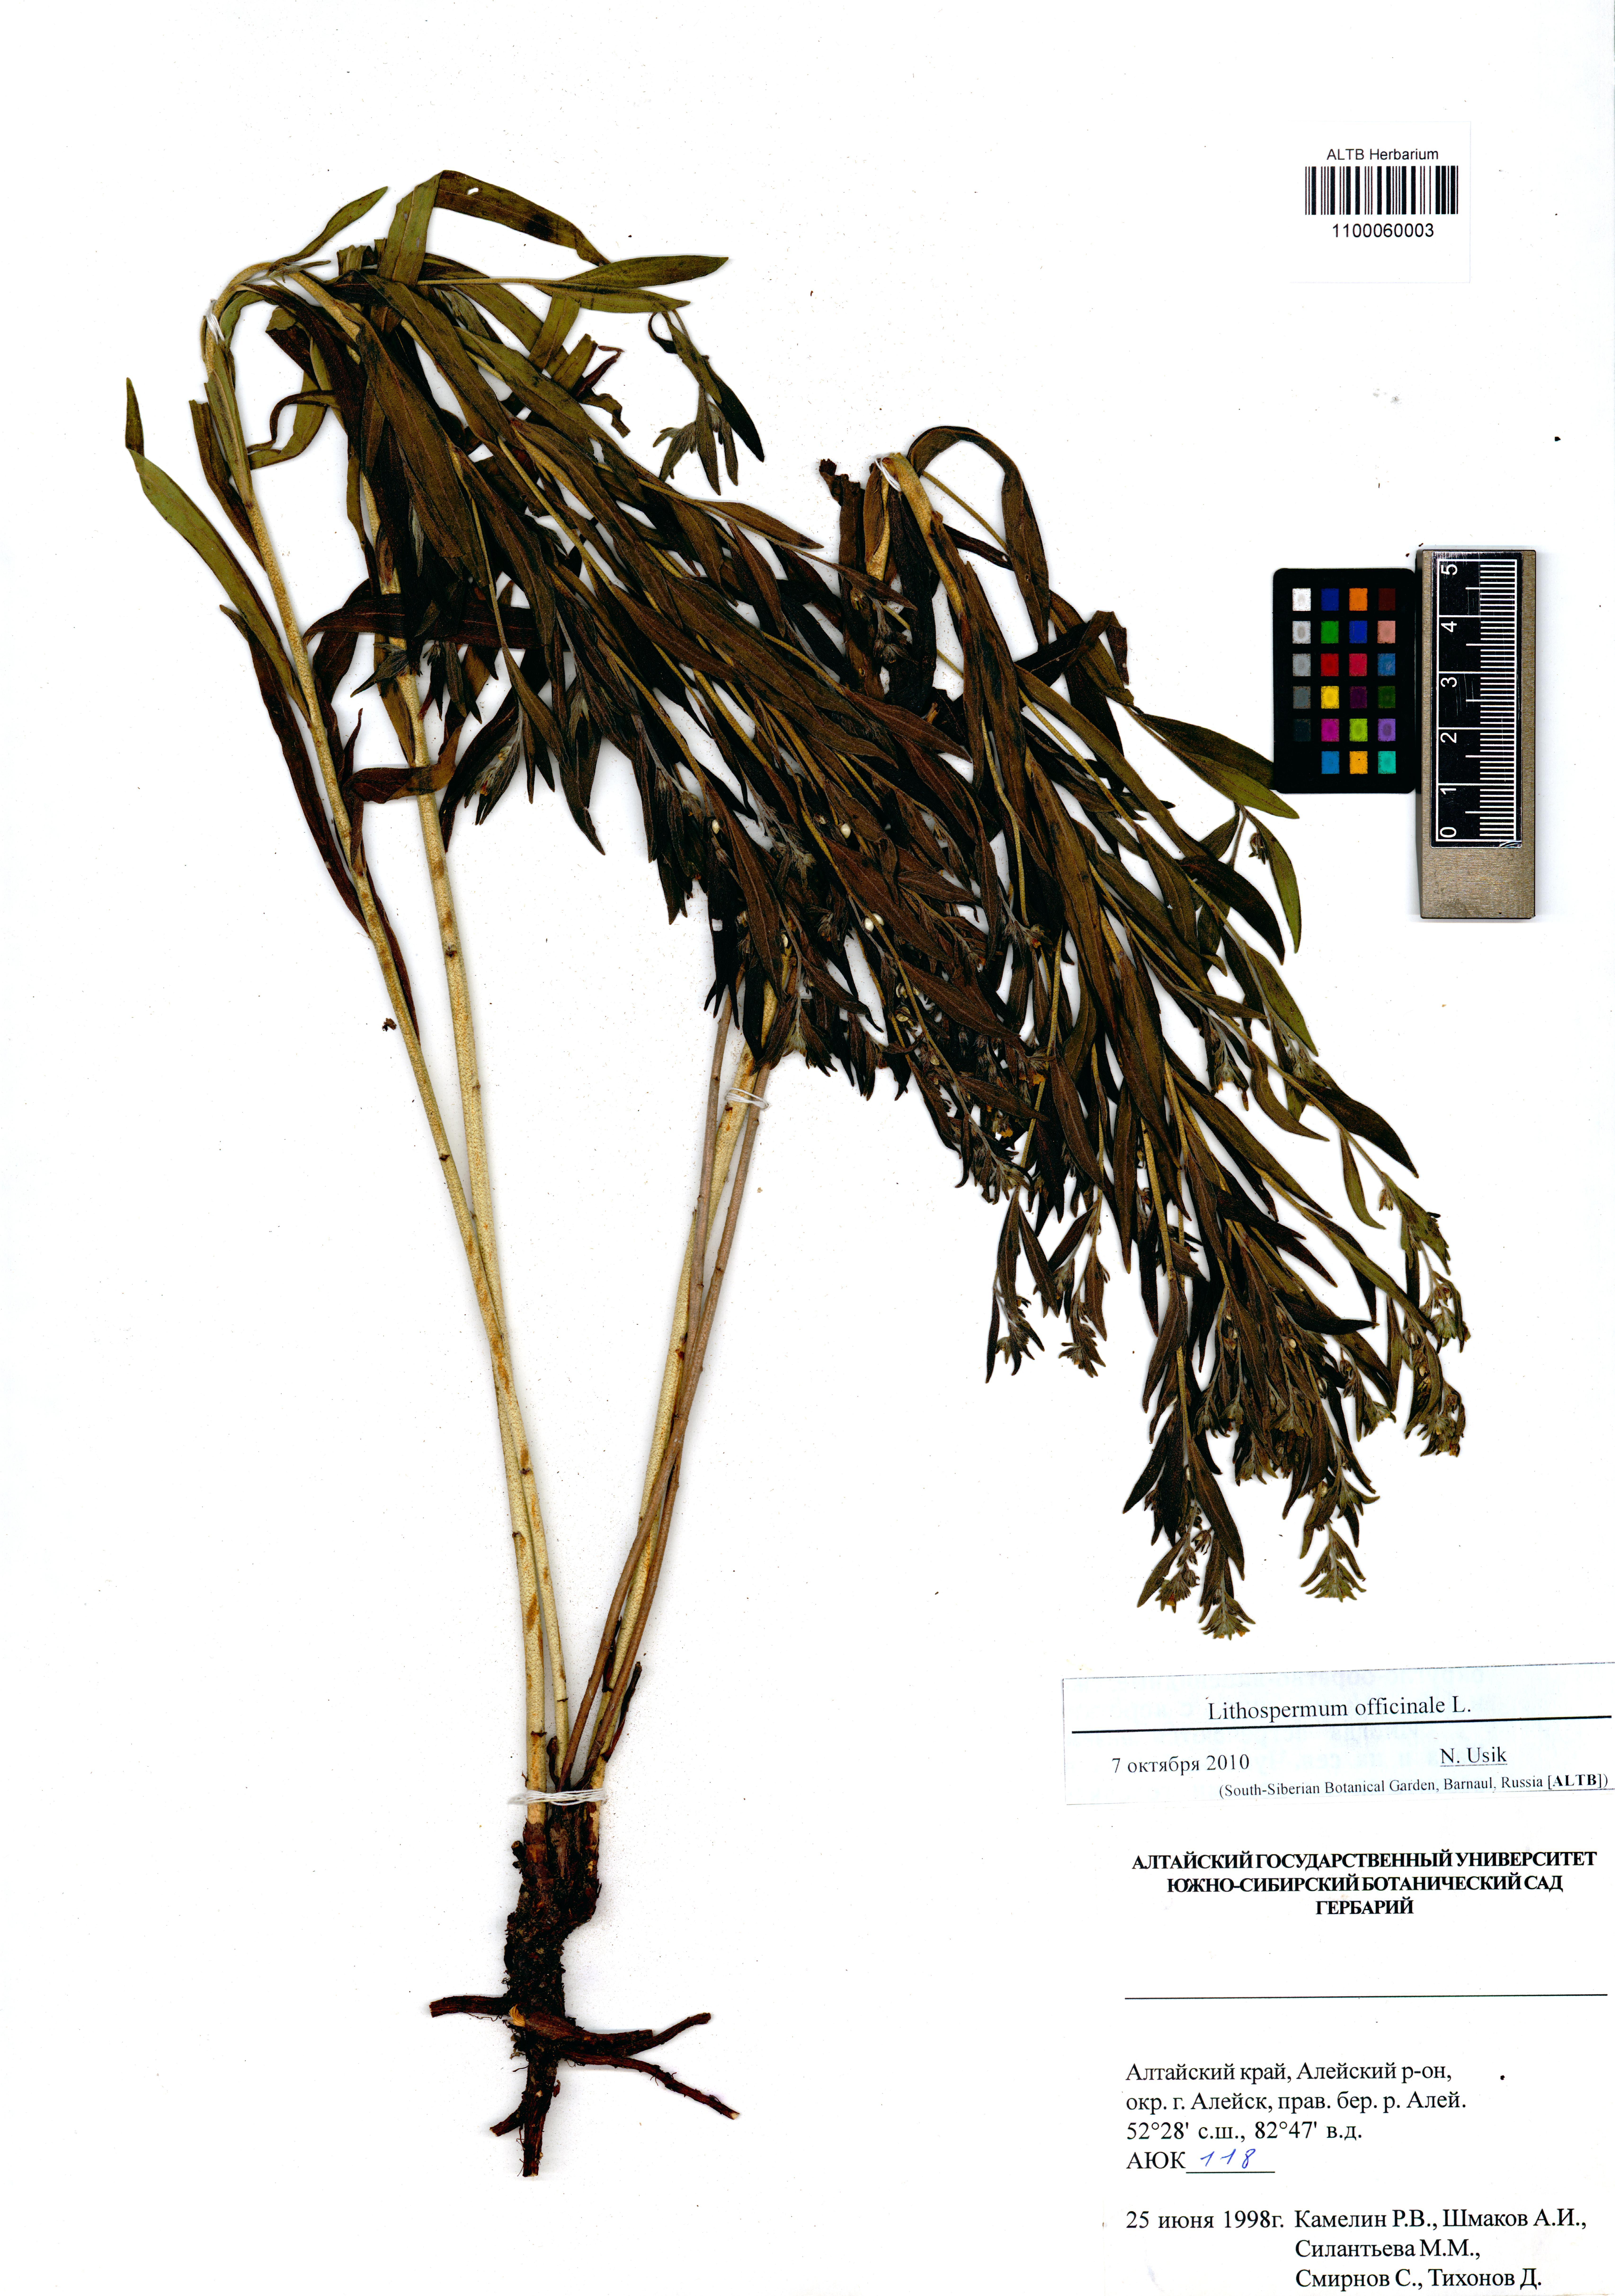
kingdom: Plantae
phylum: Tracheophyta
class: Magnoliopsida
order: Boraginales
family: Boraginaceae
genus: Lithospermum
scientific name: Lithospermum officinale
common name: Common gromwell
